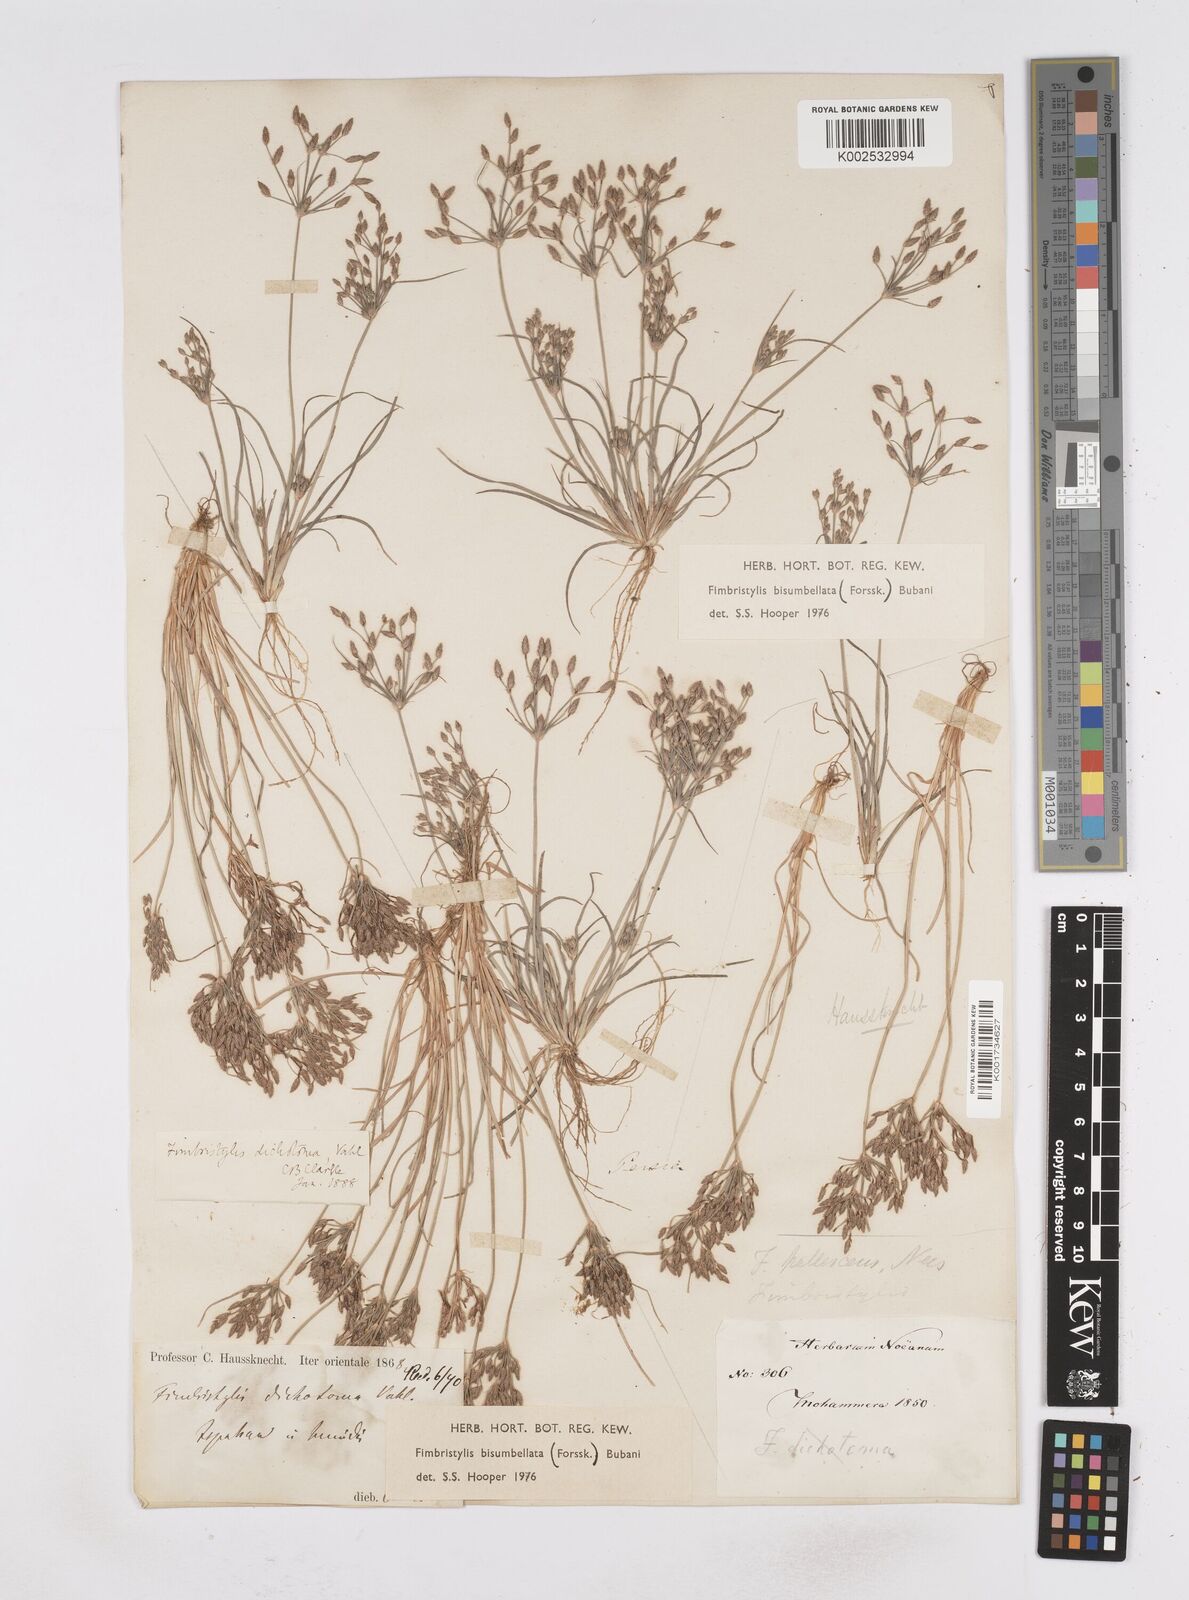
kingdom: Plantae
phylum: Tracheophyta
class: Liliopsida
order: Poales
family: Cyperaceae
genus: Fimbristylis
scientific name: Fimbristylis bisumbellata
